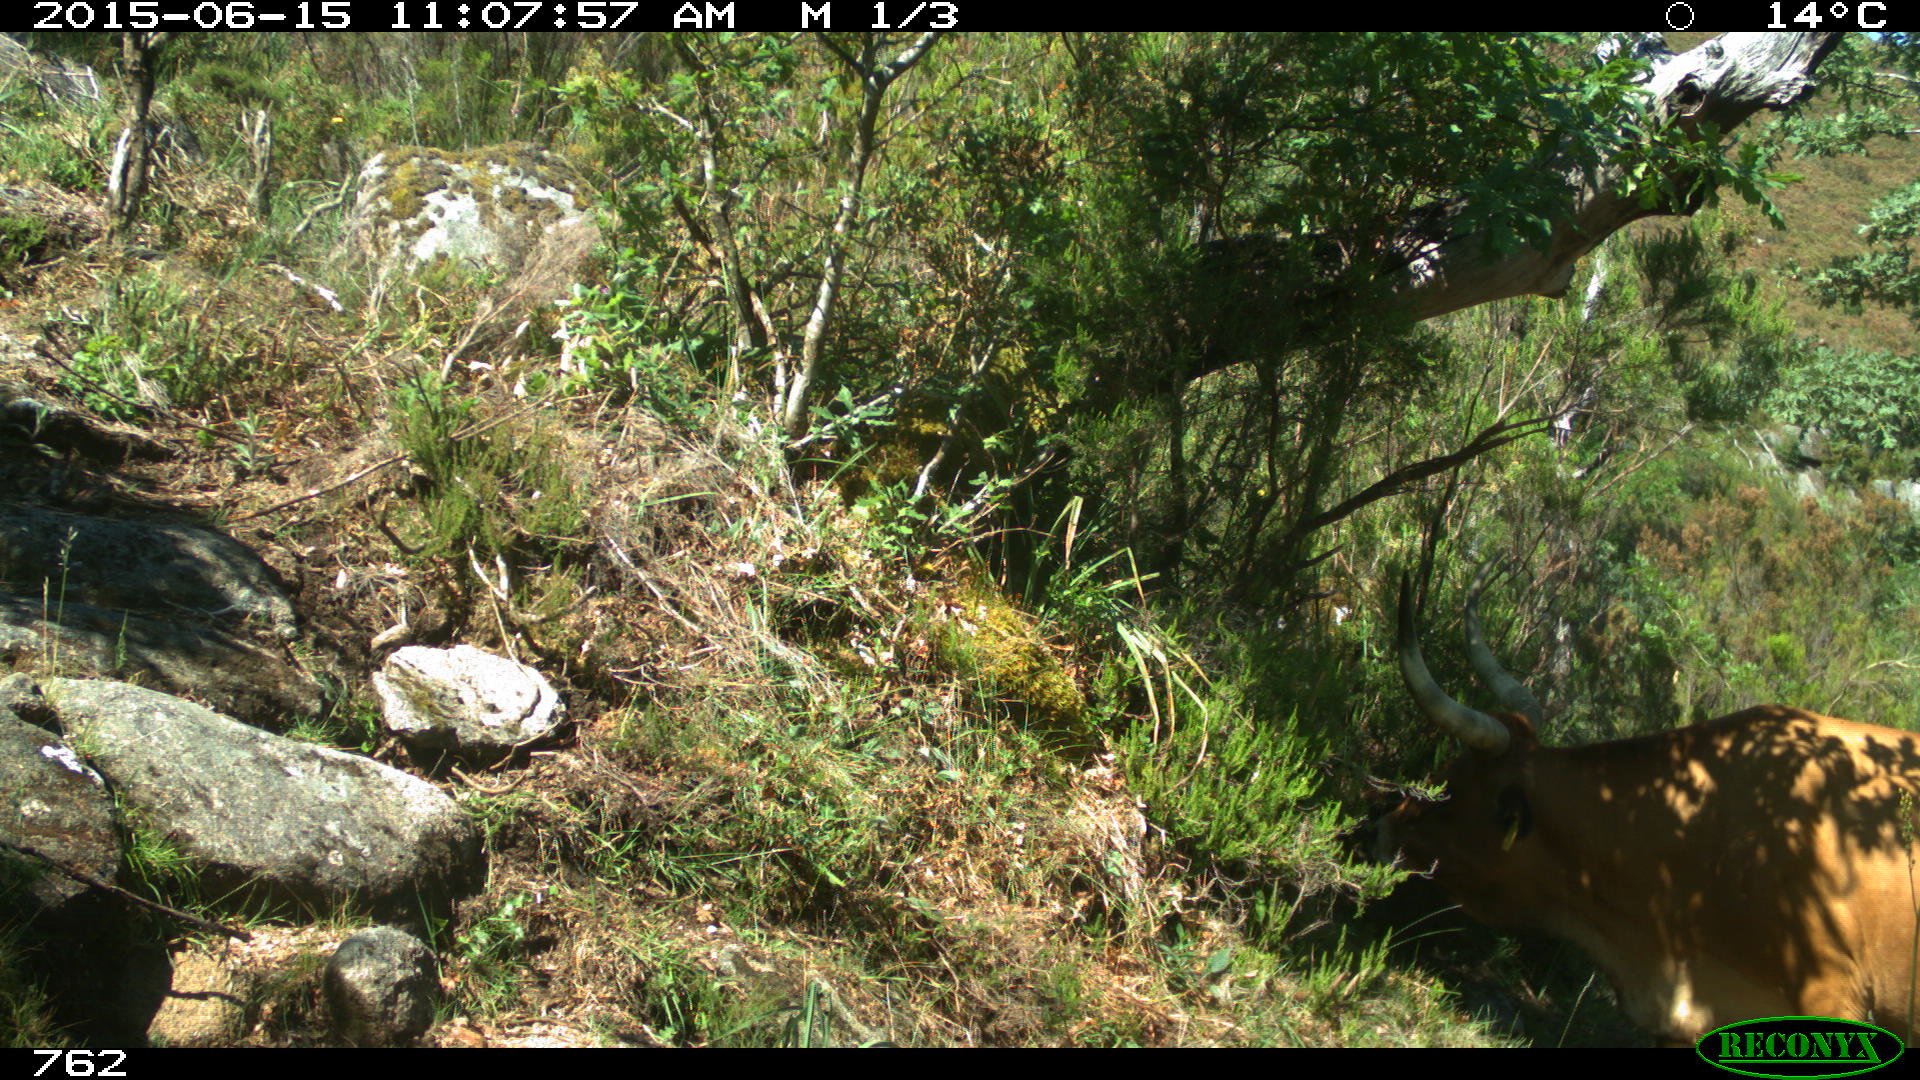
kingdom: Animalia
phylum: Chordata
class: Mammalia
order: Artiodactyla
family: Bovidae
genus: Bos
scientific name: Bos taurus
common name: Domesticated cattle
